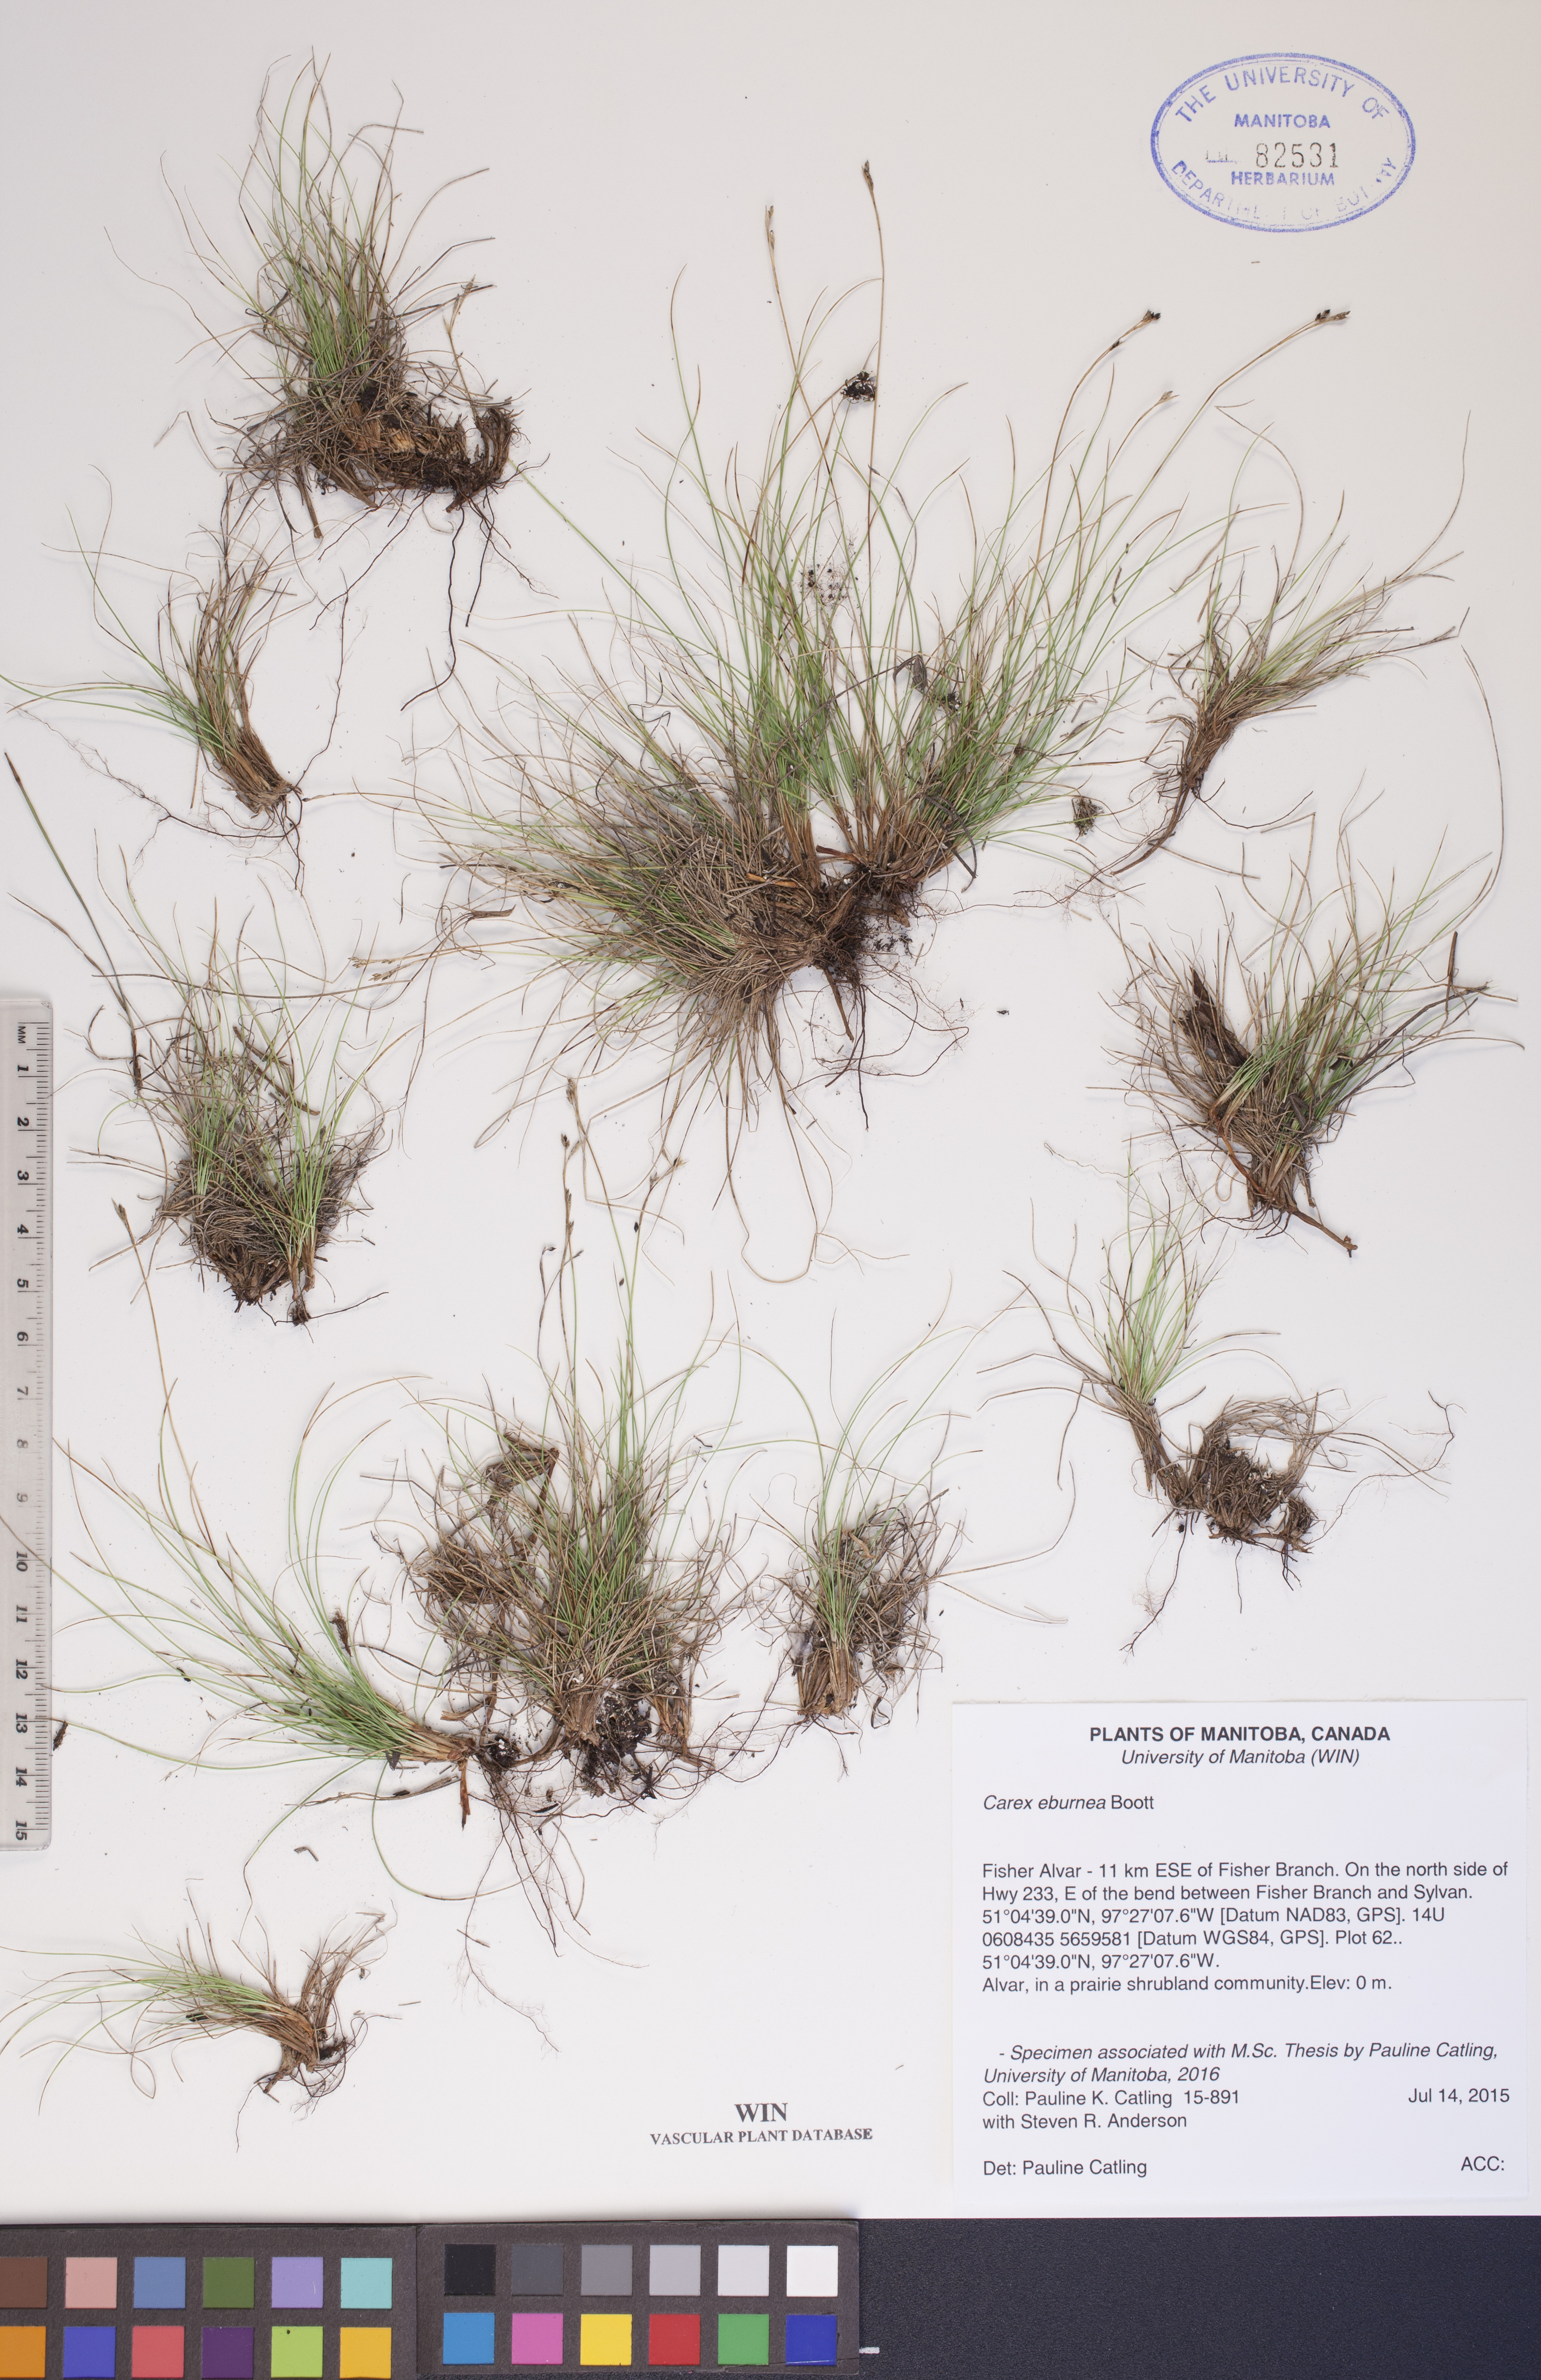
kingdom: Plantae
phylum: Tracheophyta
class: Liliopsida
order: Poales
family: Cyperaceae
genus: Carex
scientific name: Carex eburnea
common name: Bristle-leaved sedge
